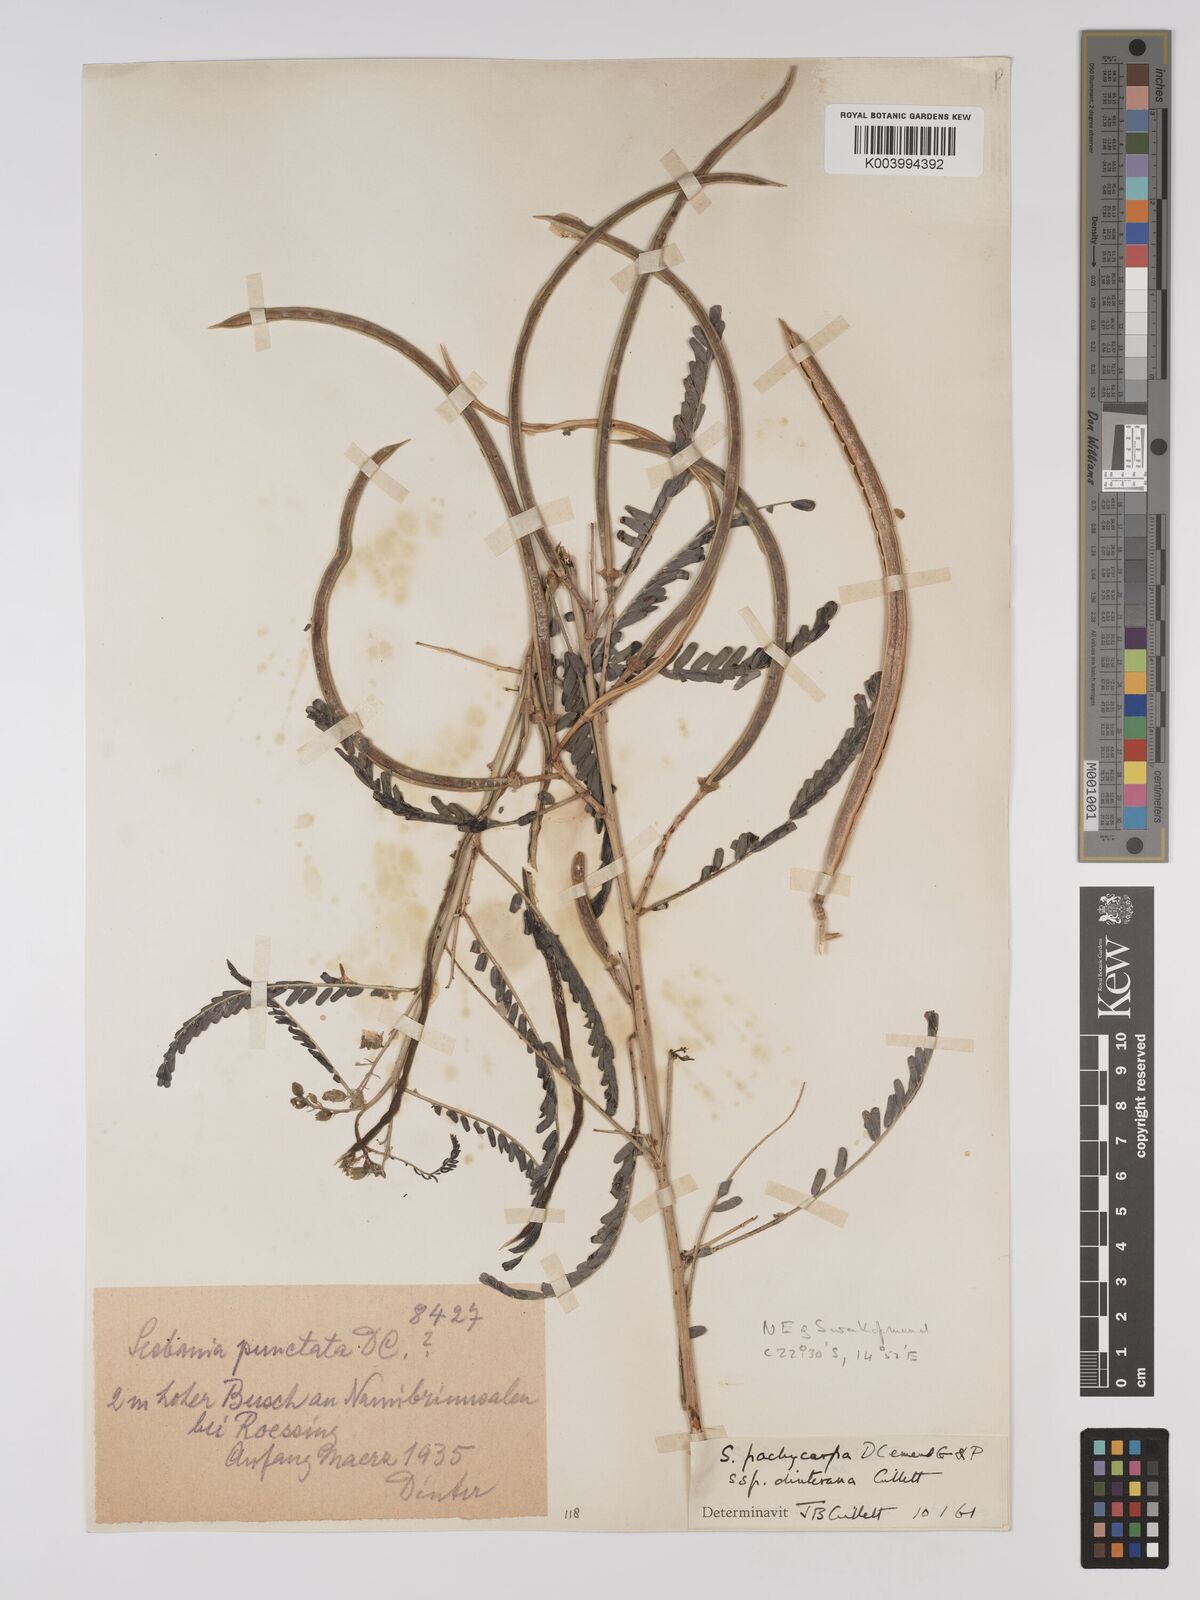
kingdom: Plantae
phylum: Tracheophyta
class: Magnoliopsida
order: Fabales
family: Fabaceae
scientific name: Fabaceae
